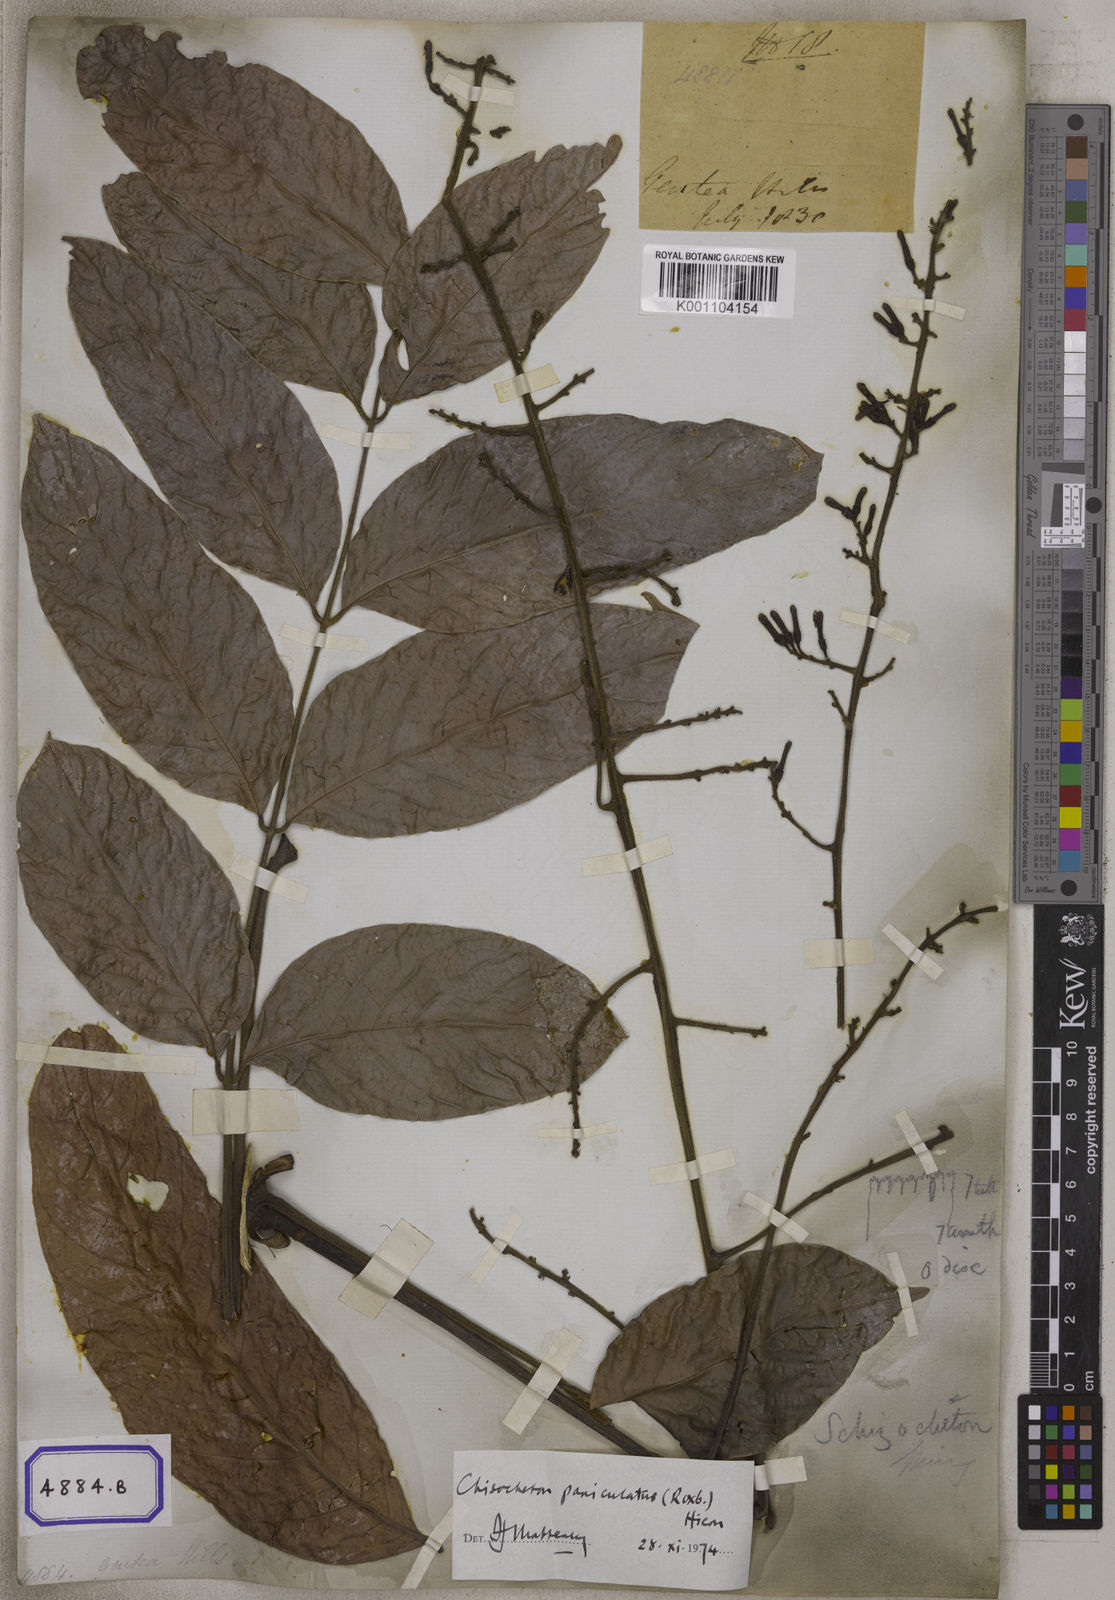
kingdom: Plantae
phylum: Tracheophyta
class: Magnoliopsida
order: Sapindales
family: Meliaceae
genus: Guarea
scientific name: Guarea
